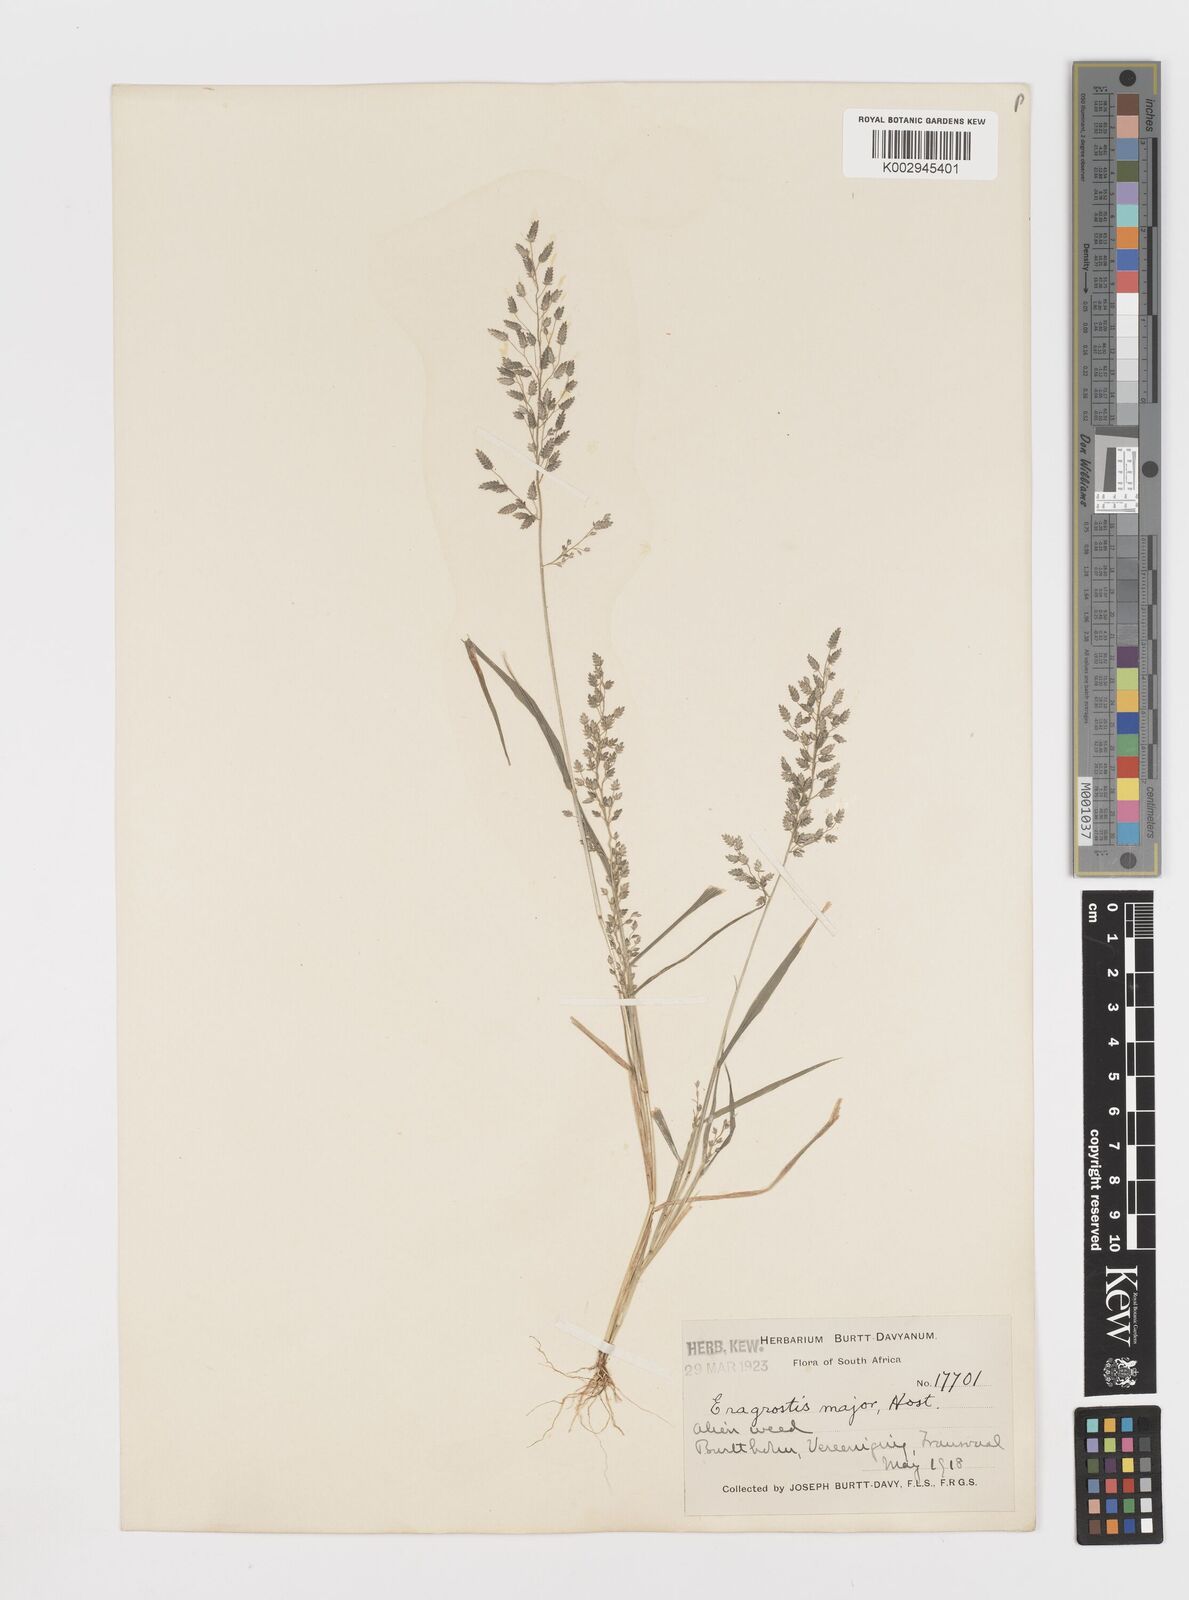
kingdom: Plantae
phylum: Tracheophyta
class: Liliopsida
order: Poales
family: Poaceae
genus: Eragrostis
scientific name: Eragrostis cilianensis
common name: Stinkgrass
